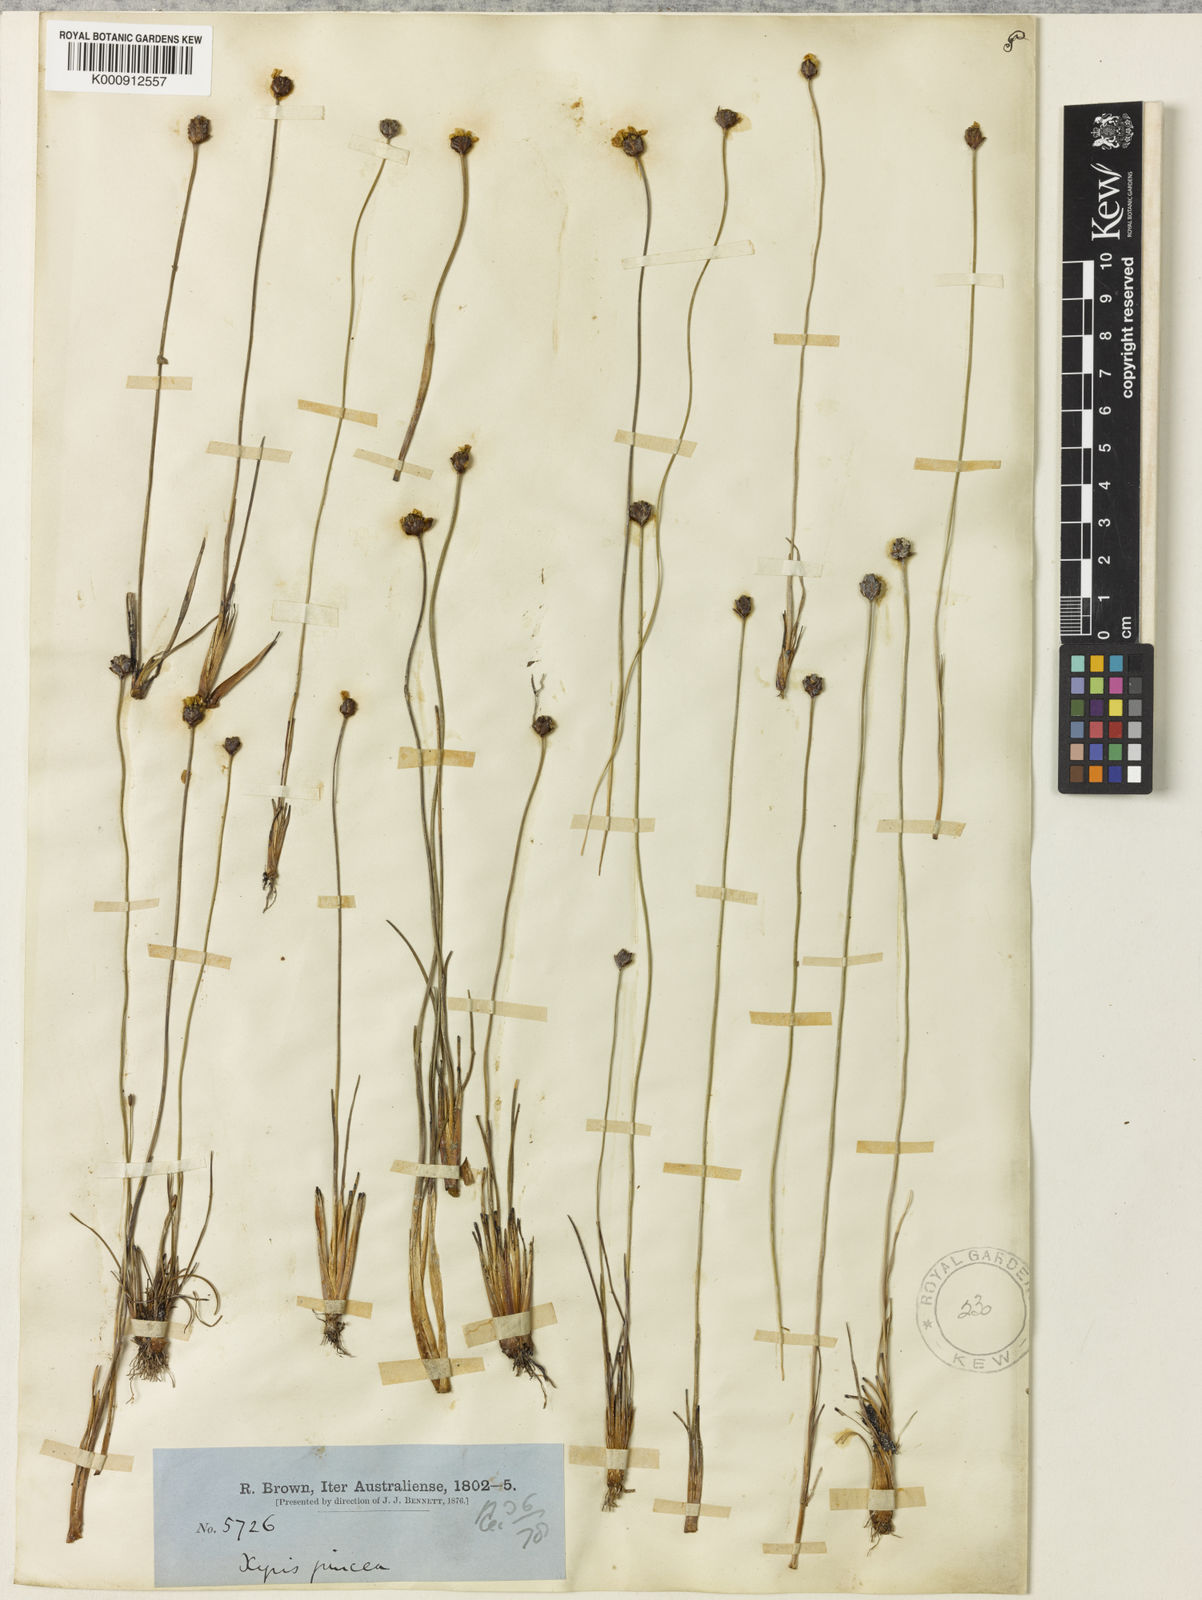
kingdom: Plantae
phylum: Tracheophyta
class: Liliopsida
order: Poales
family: Xyridaceae
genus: Xyris
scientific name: Xyris juncea
